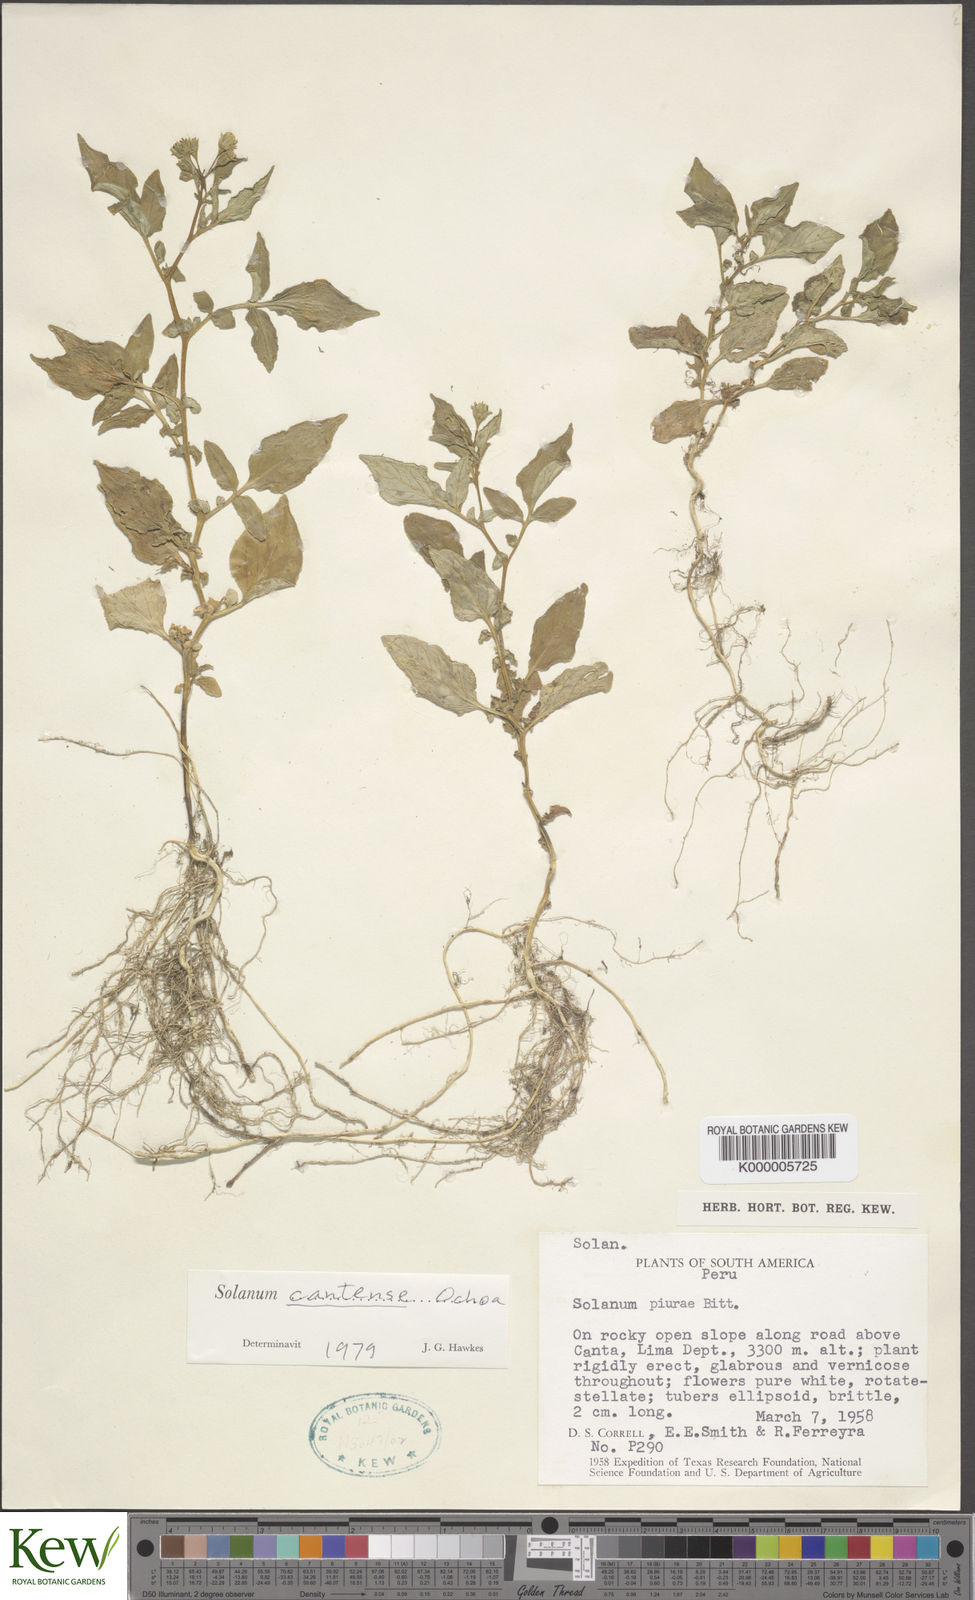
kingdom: Plantae
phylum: Tracheophyta
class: Magnoliopsida
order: Solanales
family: Solanaceae
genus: Solanum
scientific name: Solanum cantense
